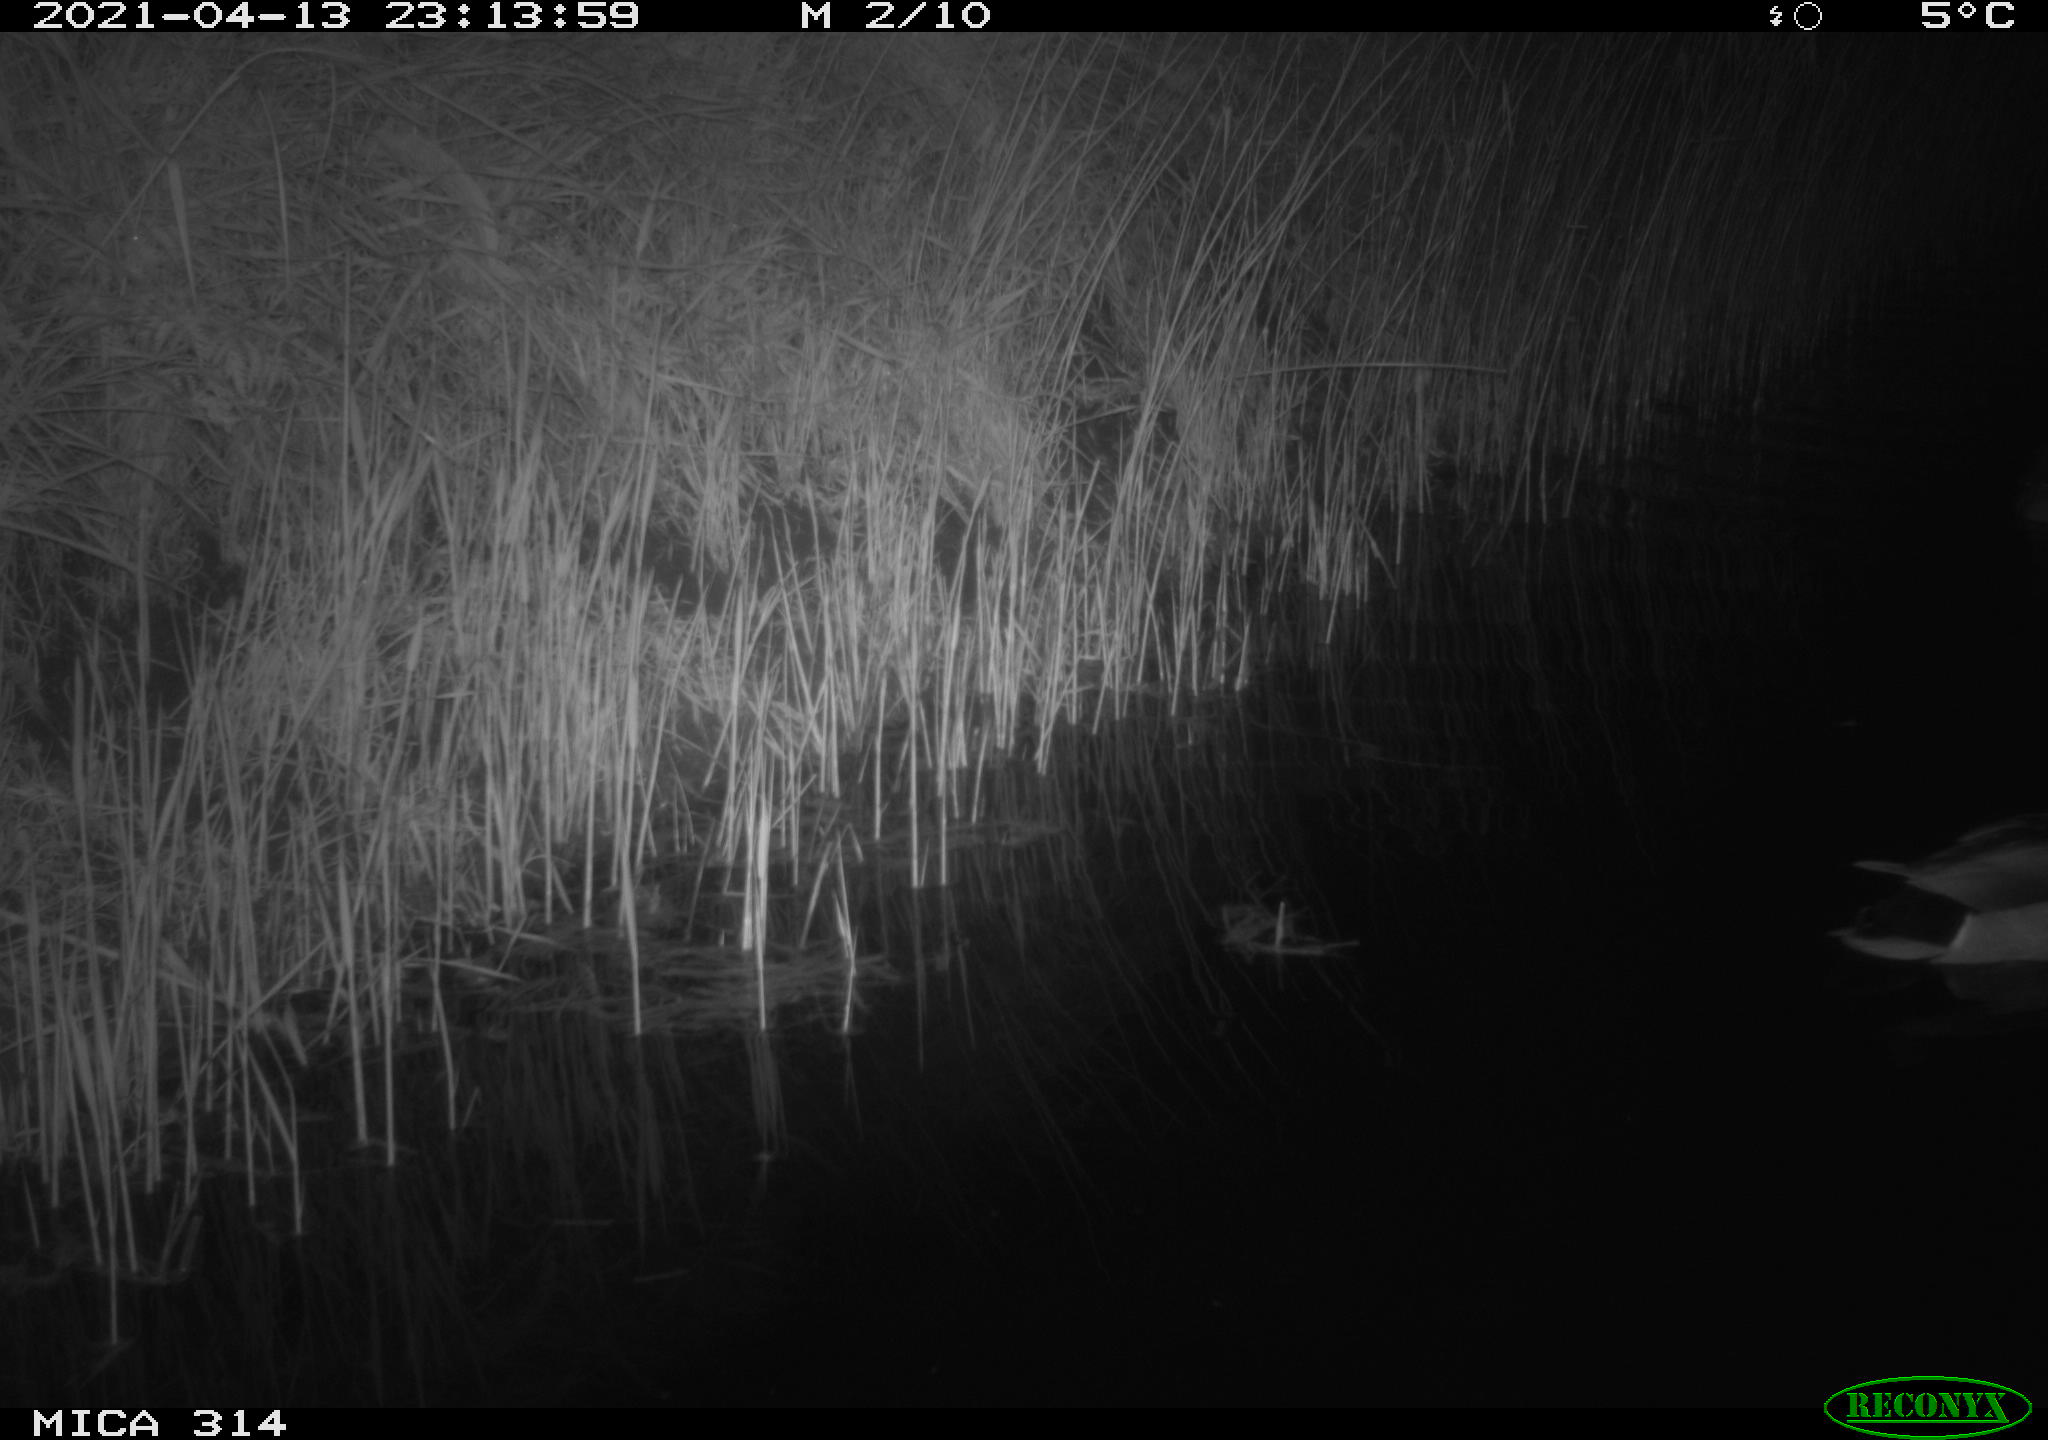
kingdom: Animalia
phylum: Chordata
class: Aves
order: Anseriformes
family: Anatidae
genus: Anas
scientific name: Anas platyrhynchos
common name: Mallard
